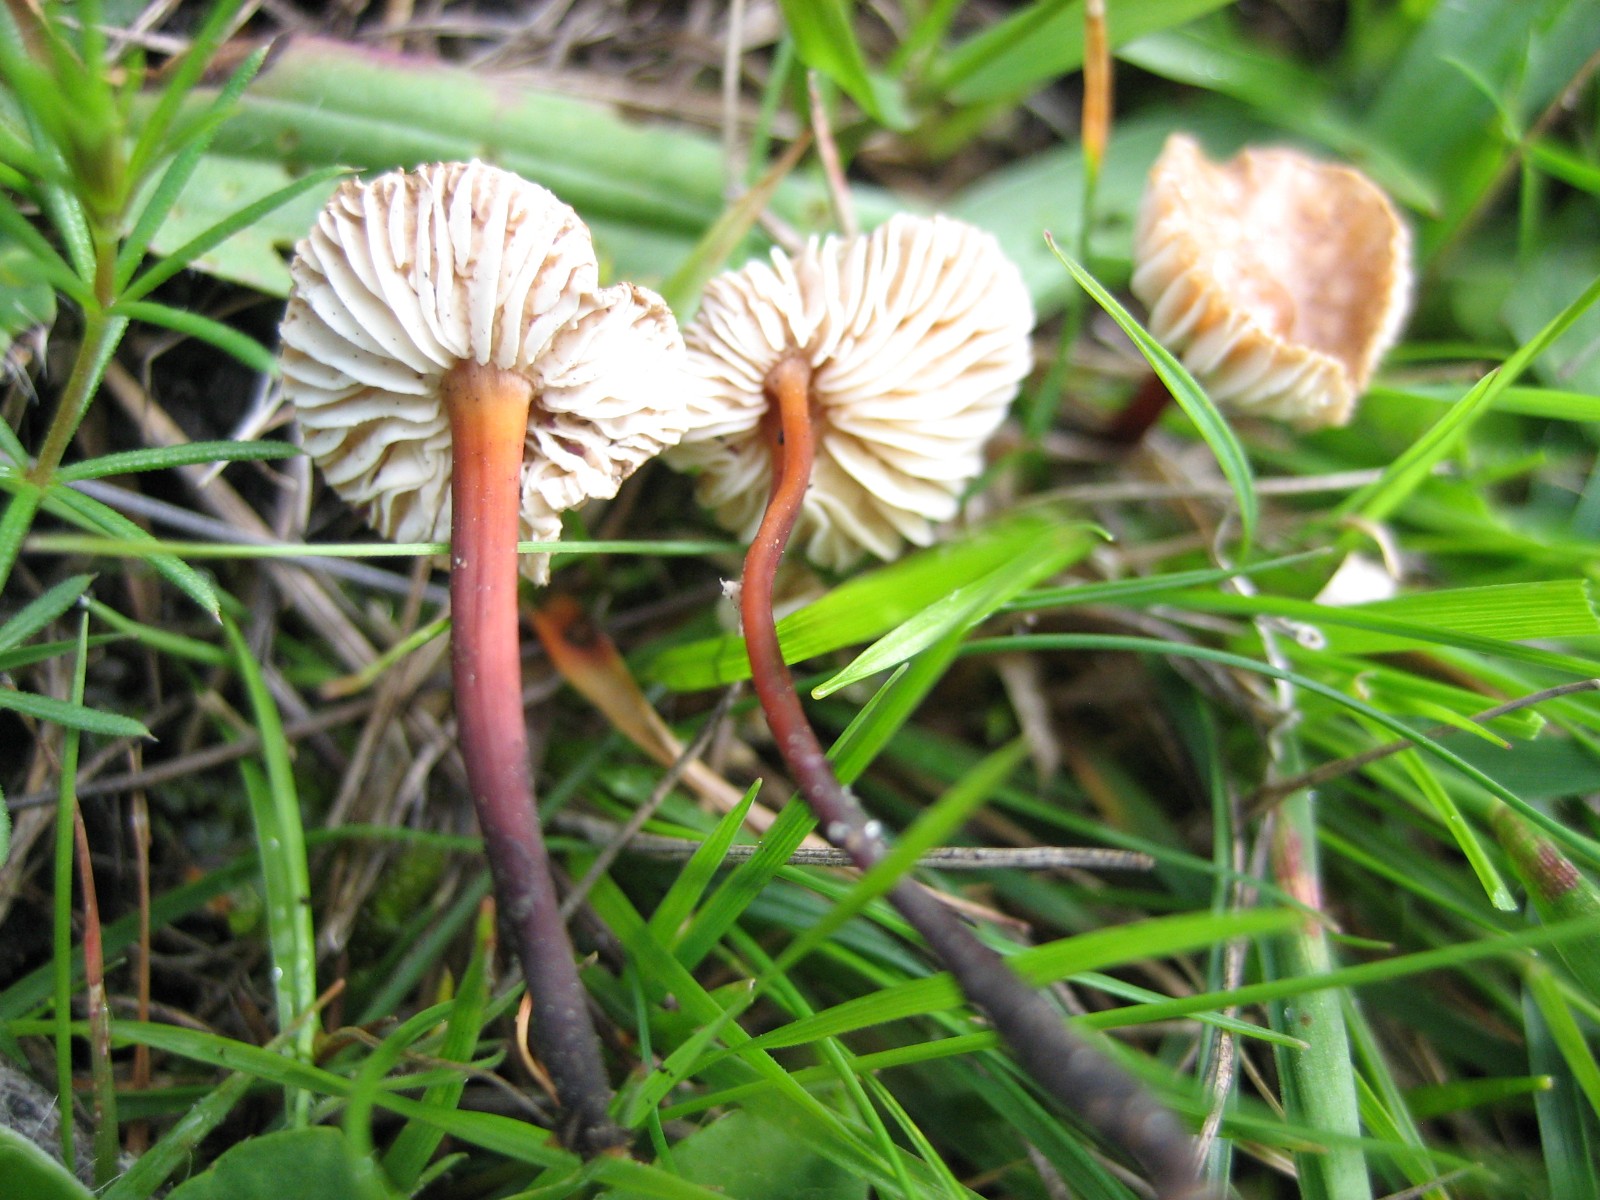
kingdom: Fungi
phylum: Basidiomycota
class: Agaricomycetes
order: Agaricales
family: Omphalotaceae
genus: Mycetinis
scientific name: Mycetinis scorodonius
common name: lille løghat
